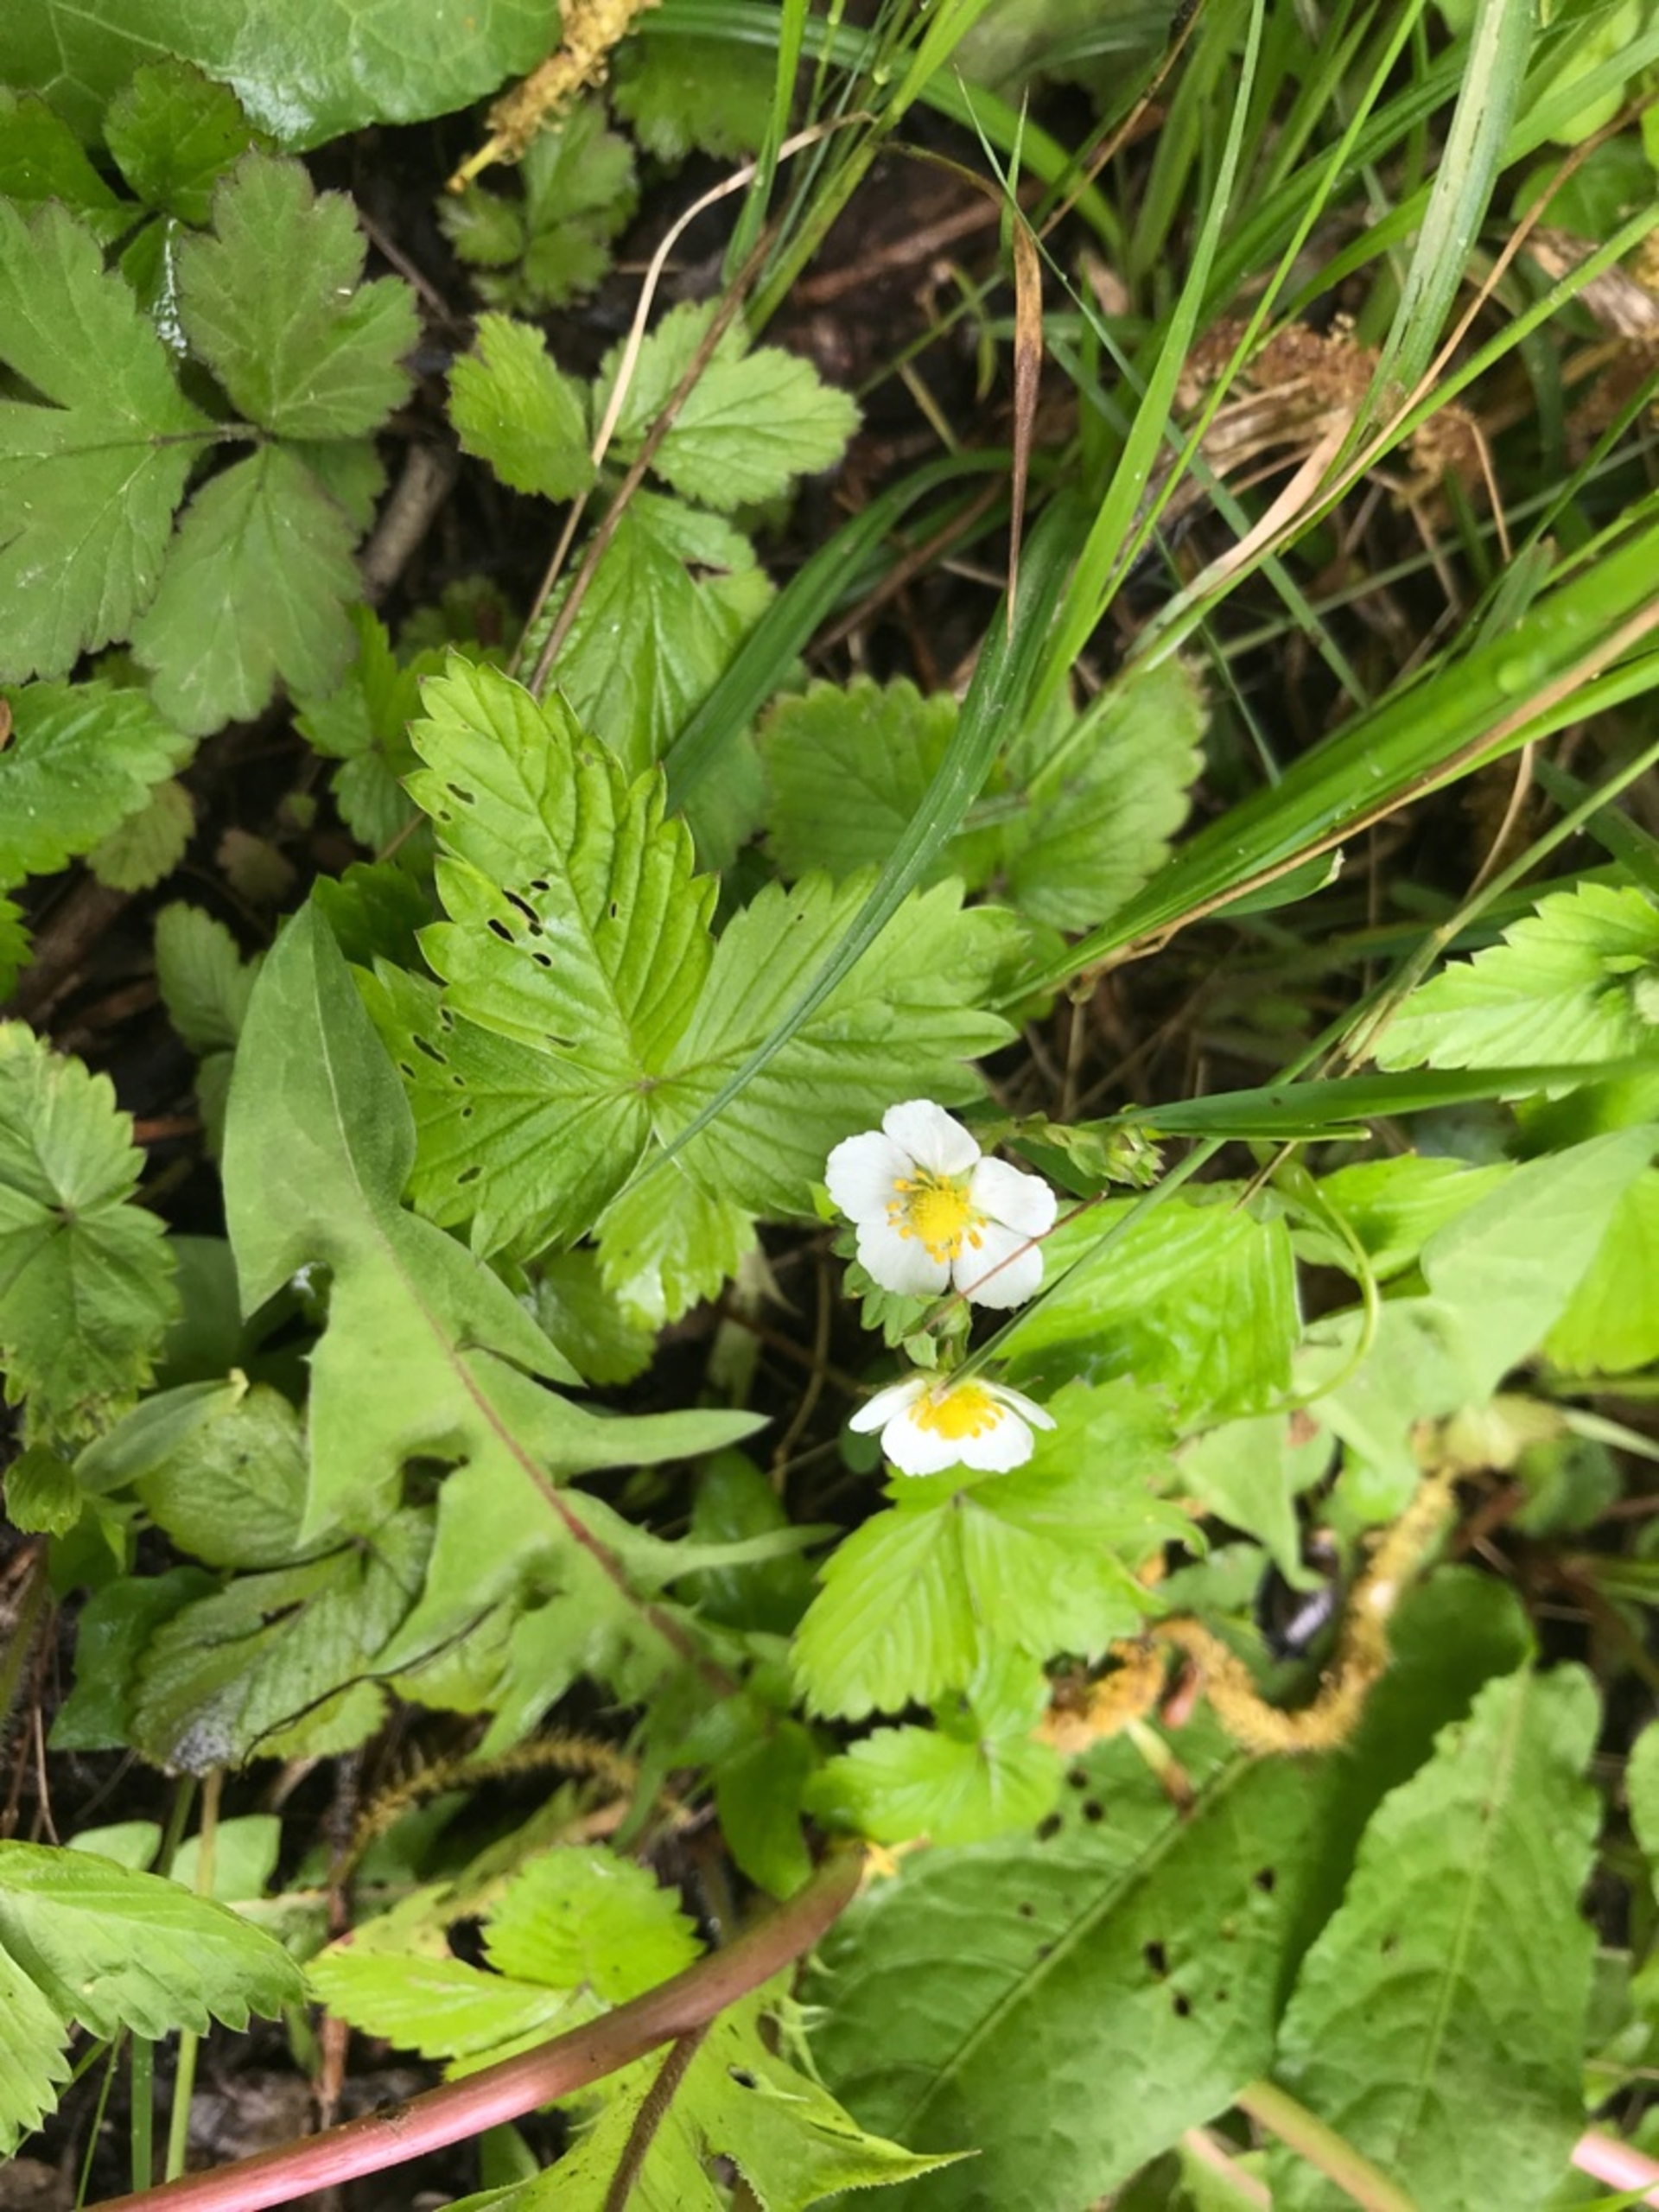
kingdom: Plantae
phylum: Tracheophyta
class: Magnoliopsida
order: Rosales
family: Rosaceae
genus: Fragaria
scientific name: Fragaria vesca
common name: Skov-jordbær
